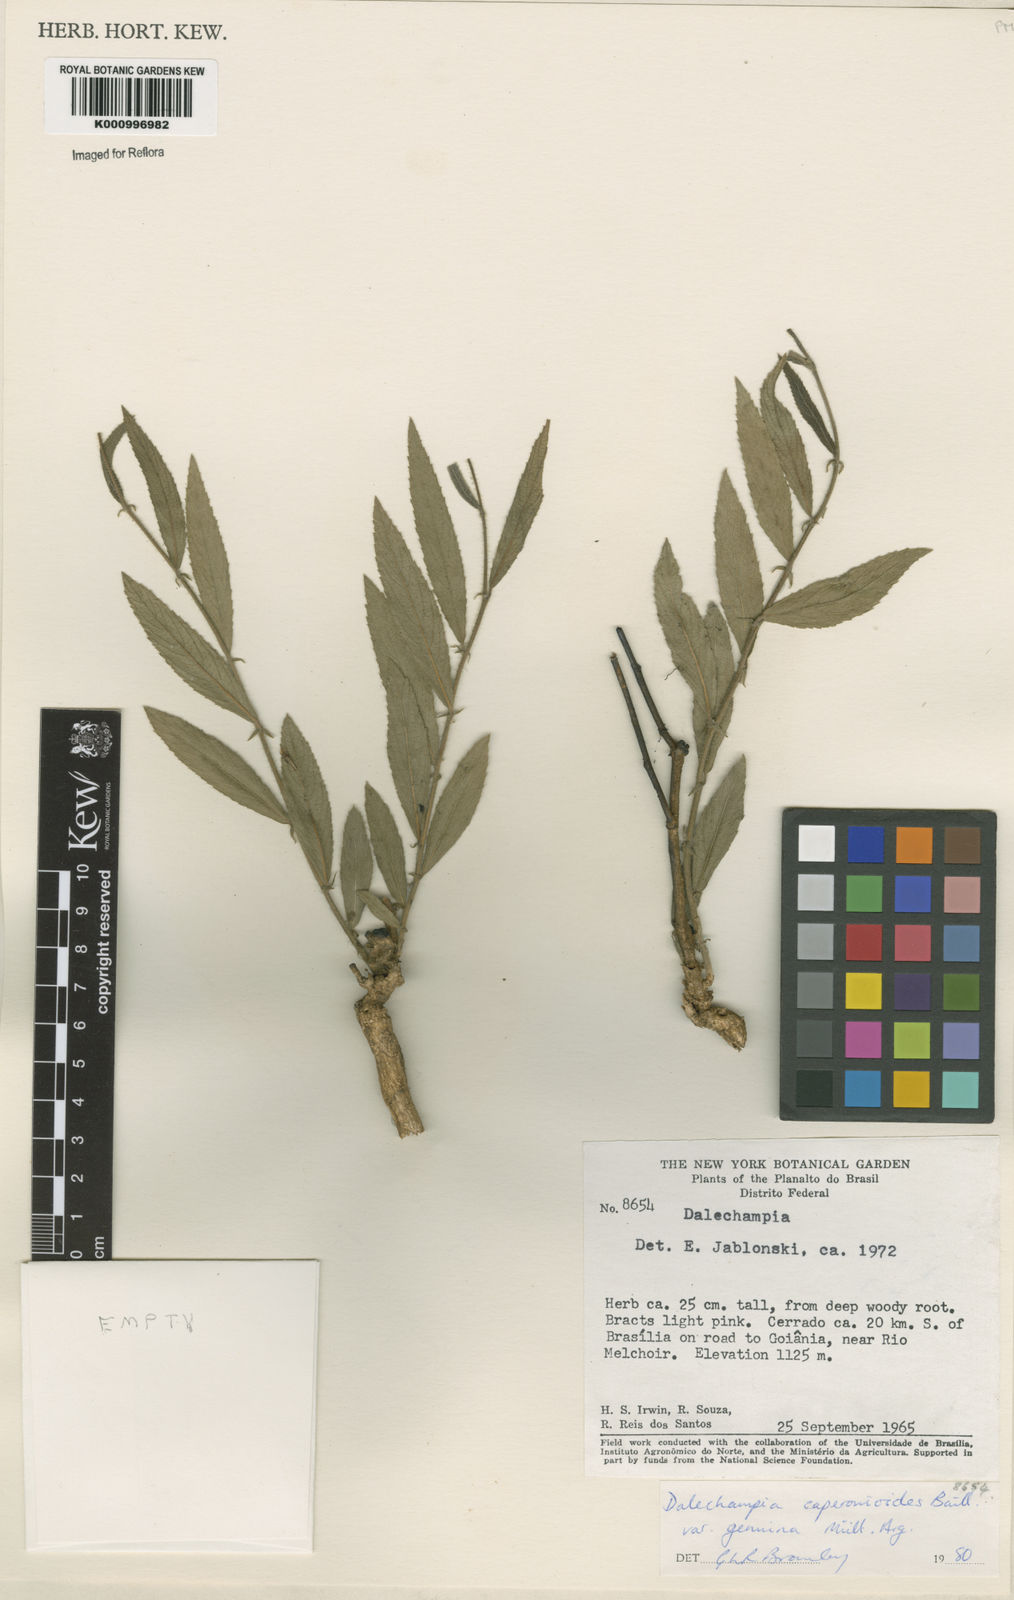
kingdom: Plantae
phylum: Tracheophyta
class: Magnoliopsida
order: Malpighiales
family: Euphorbiaceae
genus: Dalechampia
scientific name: Dalechampia caperonioides
